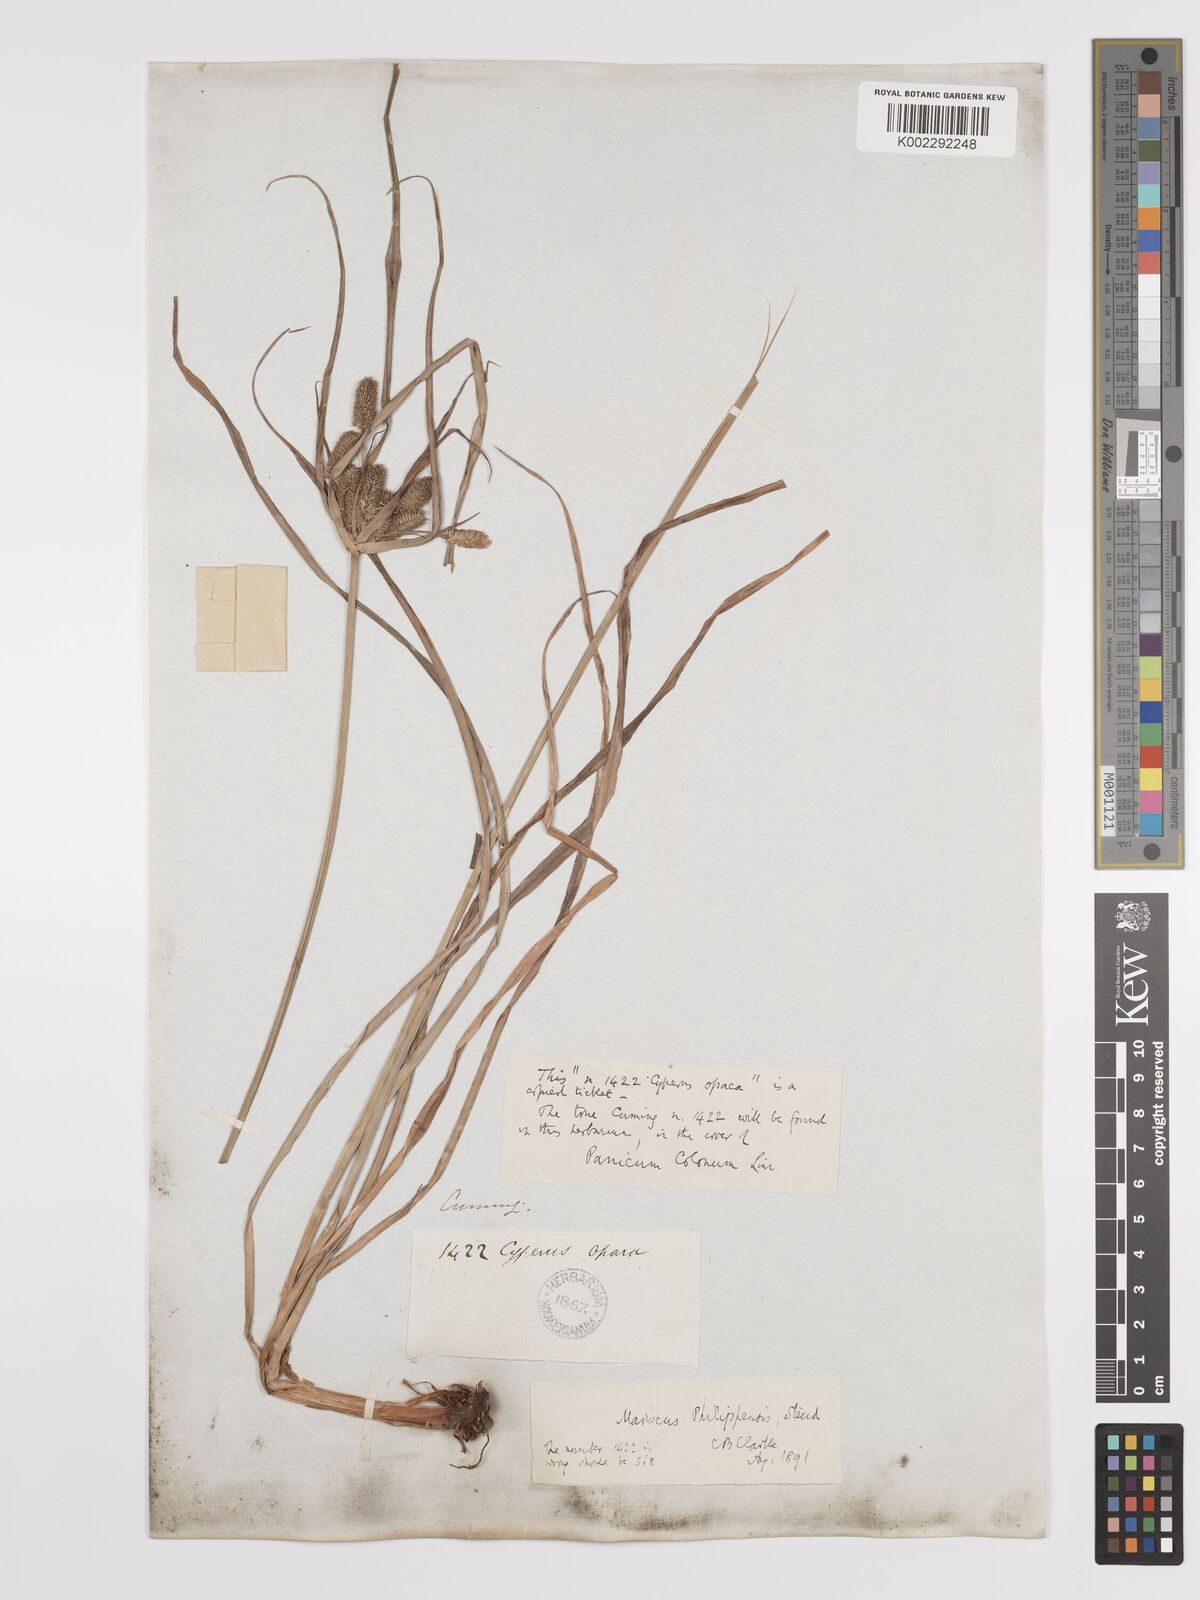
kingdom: Plantae
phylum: Tracheophyta
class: Liliopsida
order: Poales
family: Cyperaceae
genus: Cyperus
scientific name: Cyperus cyperoides
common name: Pacific island flat sedge
